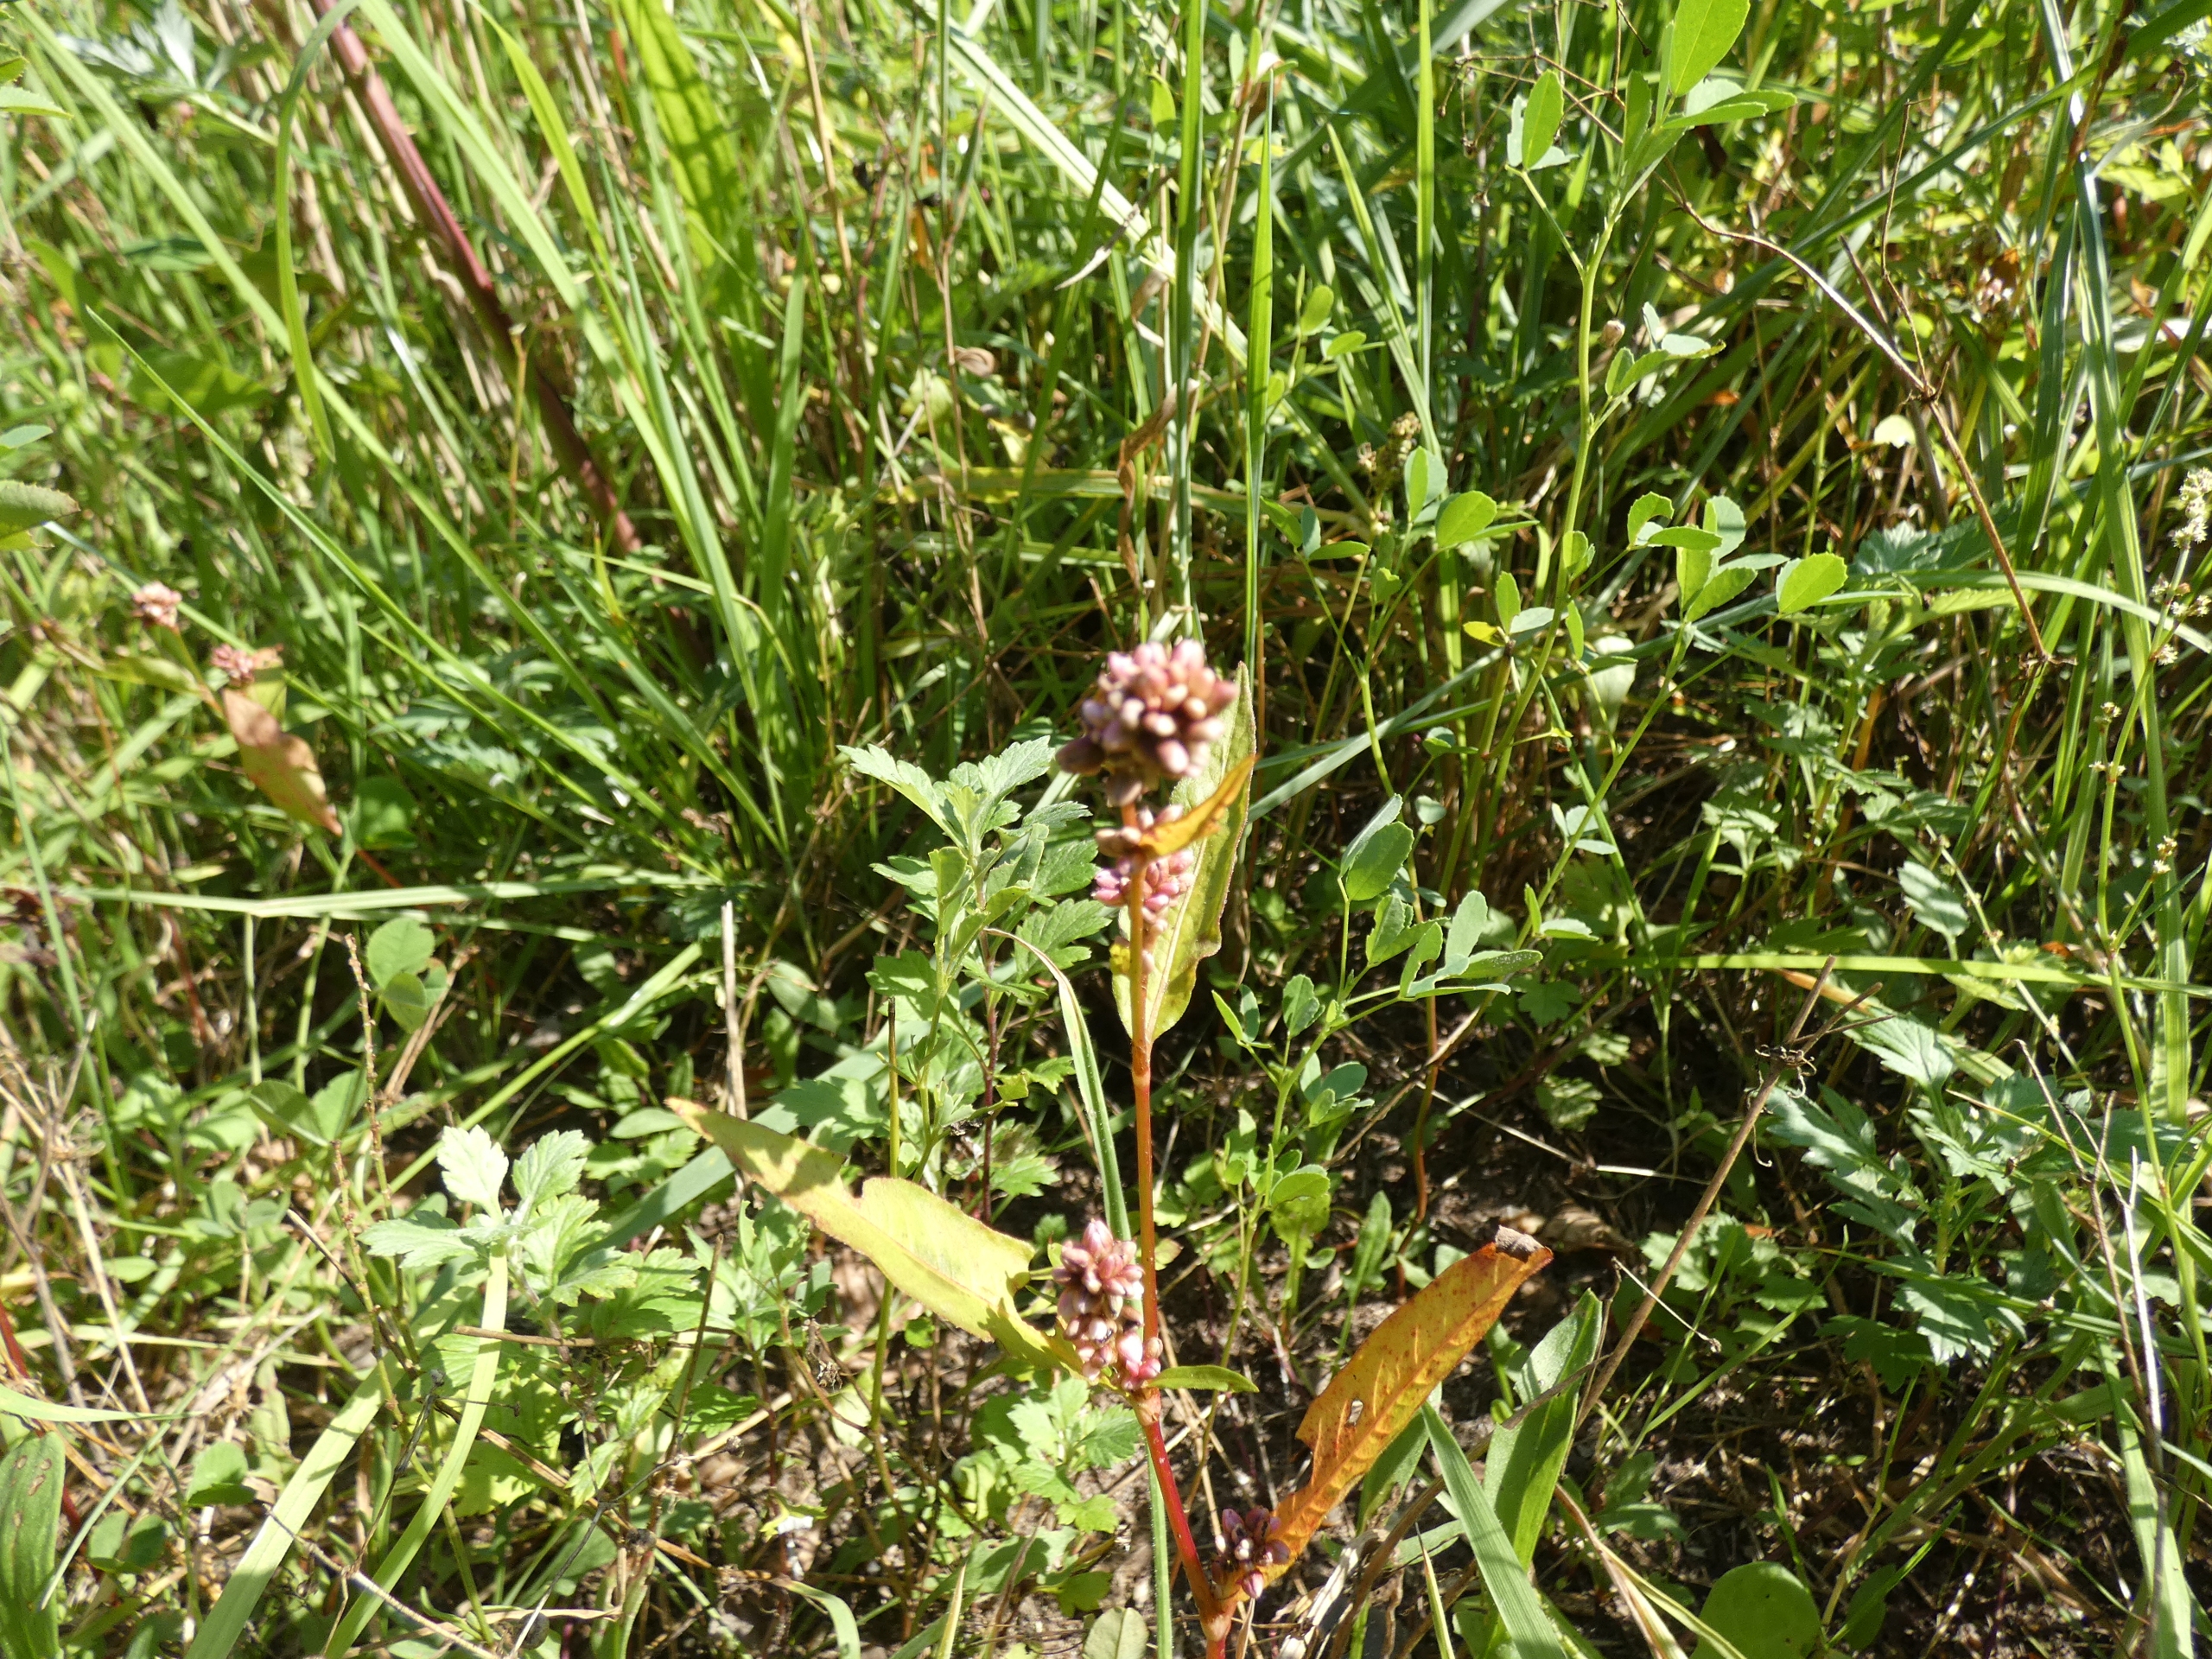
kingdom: Plantae
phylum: Tracheophyta
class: Magnoliopsida
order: Caryophyllales
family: Polygonaceae
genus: Persicaria
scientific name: Persicaria lapathifolia
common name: Knudet pileurt
